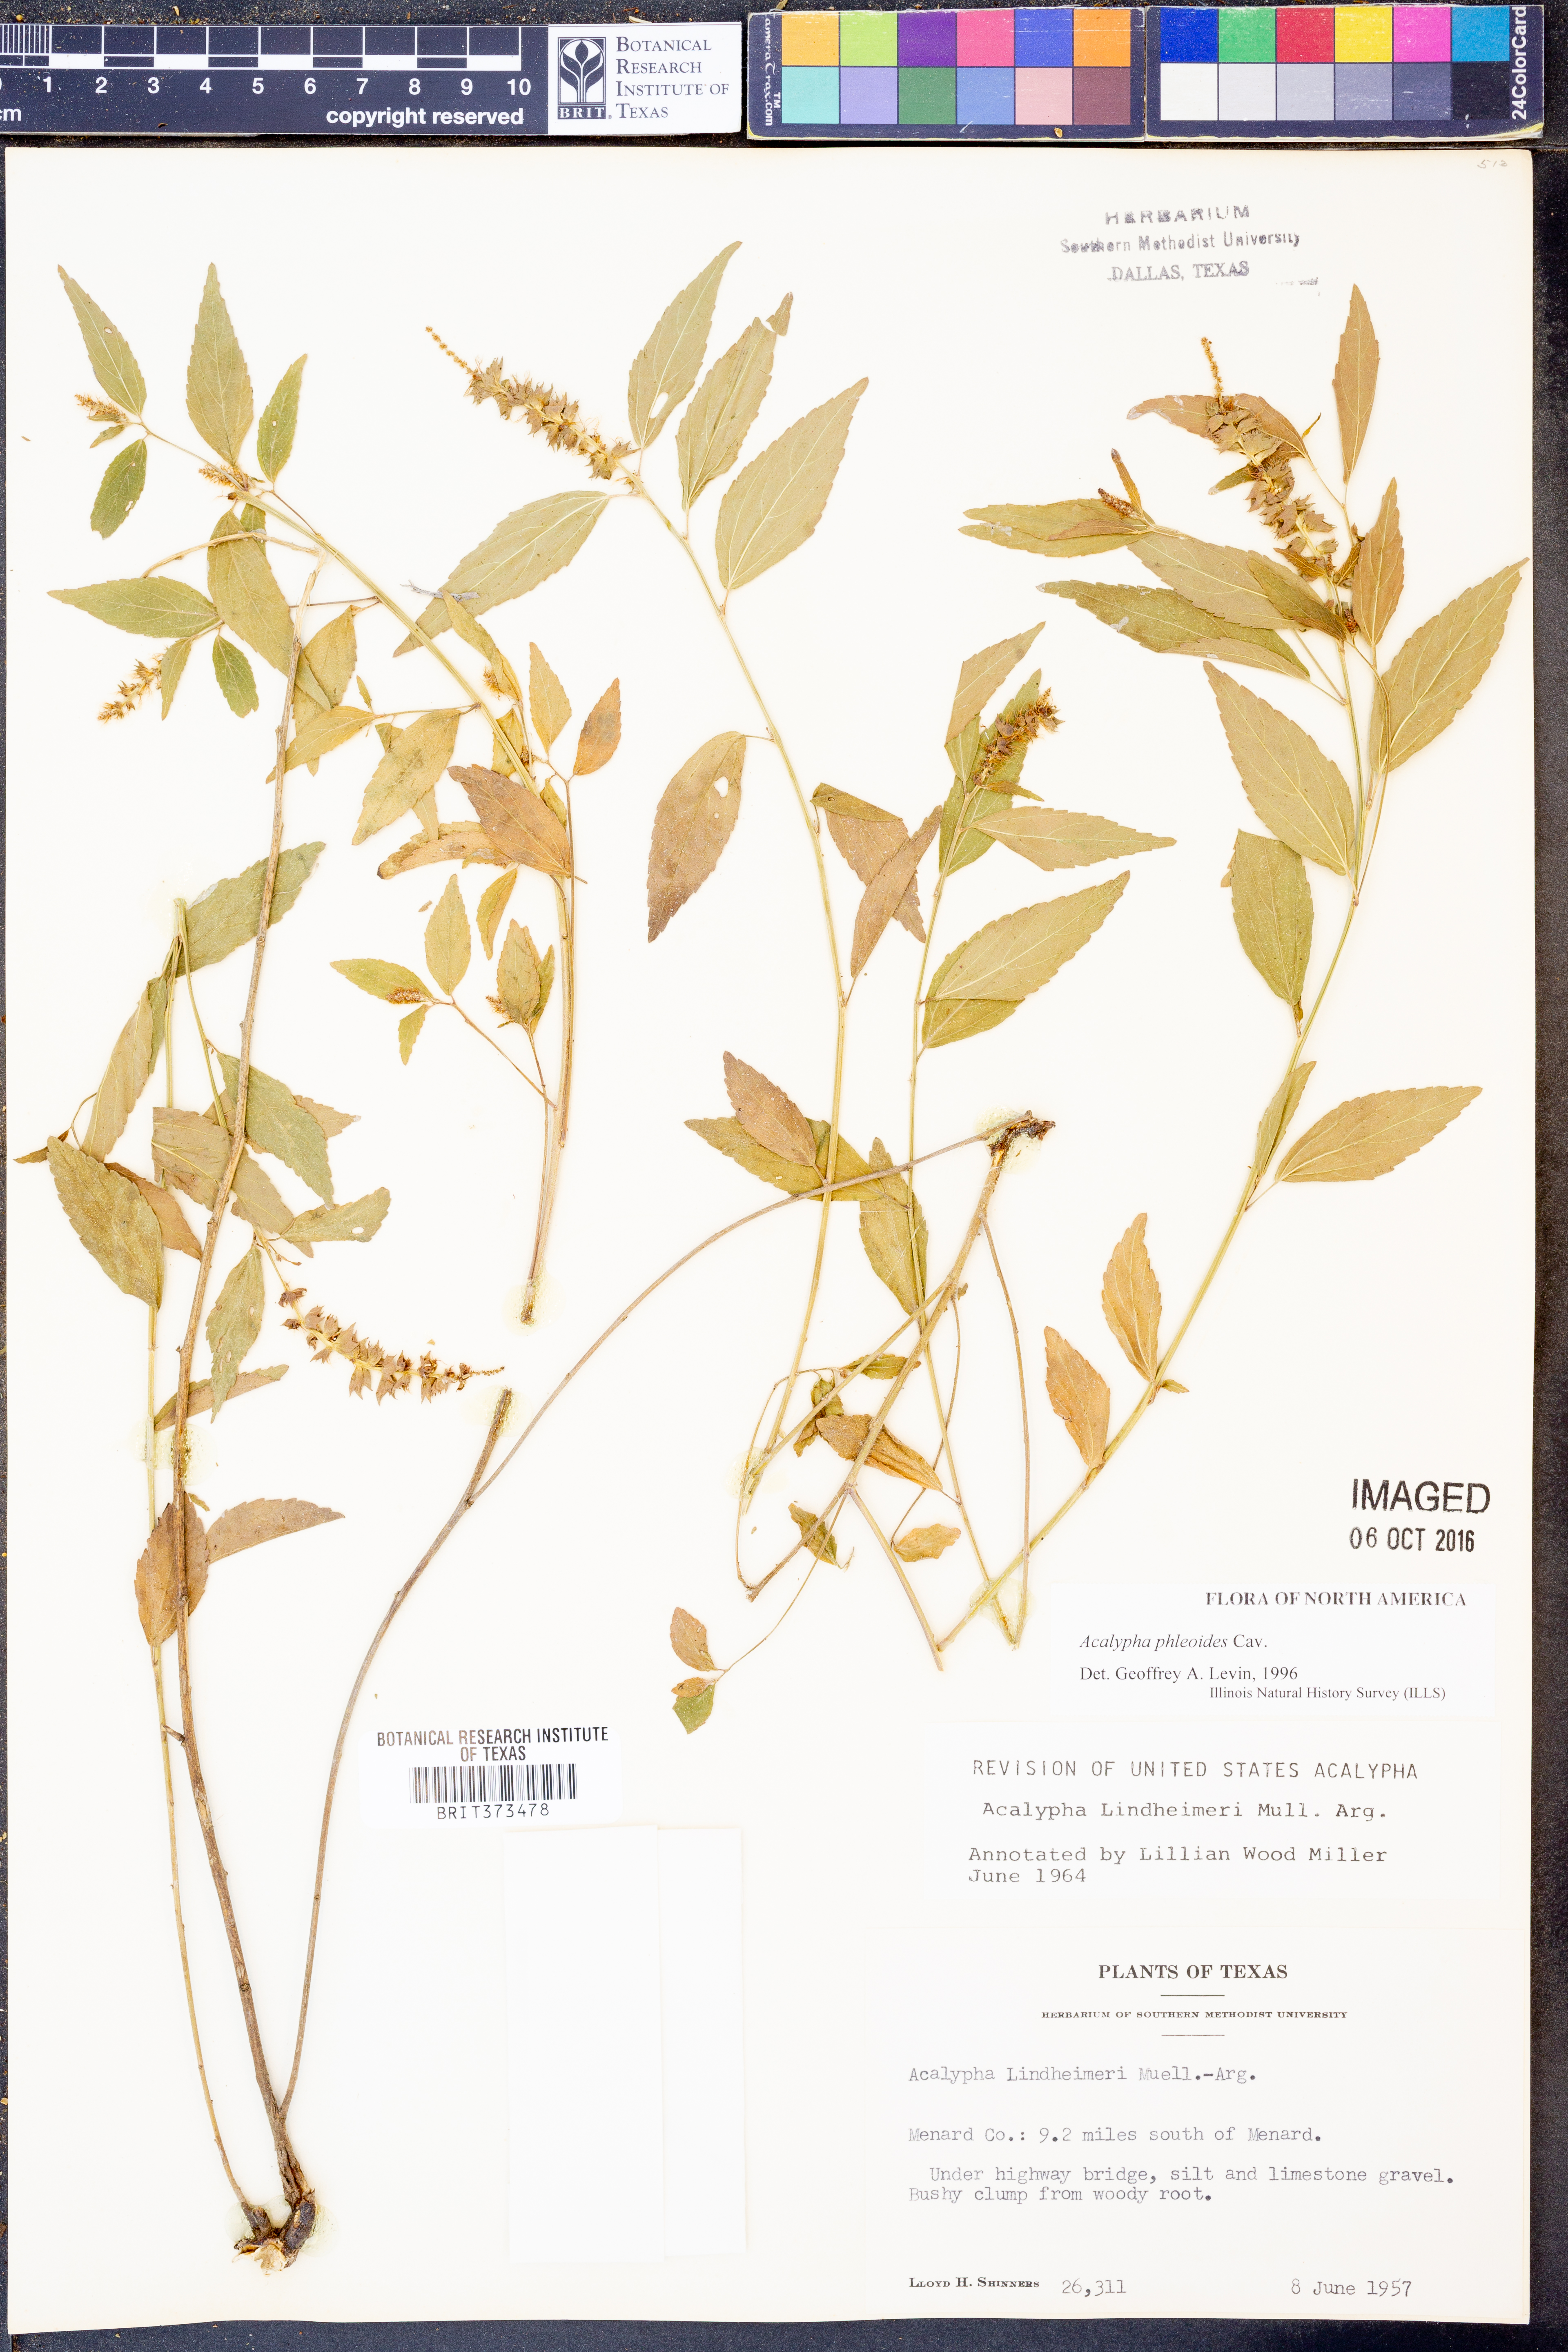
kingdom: Plantae
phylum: Tracheophyta
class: Magnoliopsida
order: Malpighiales
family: Euphorbiaceae
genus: Acalypha
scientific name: Acalypha phleoides
